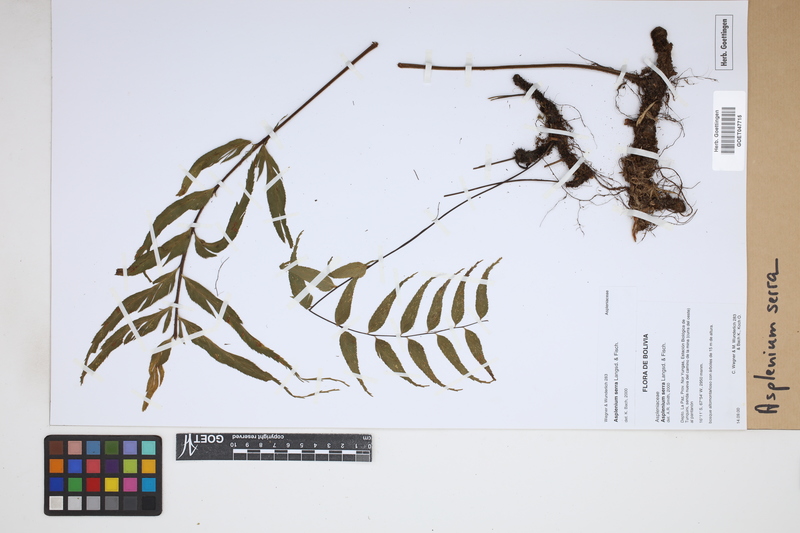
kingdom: Plantae
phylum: Tracheophyta
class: Polypodiopsida
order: Polypodiales
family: Aspleniaceae
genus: Asplenium
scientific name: Asplenium serra
